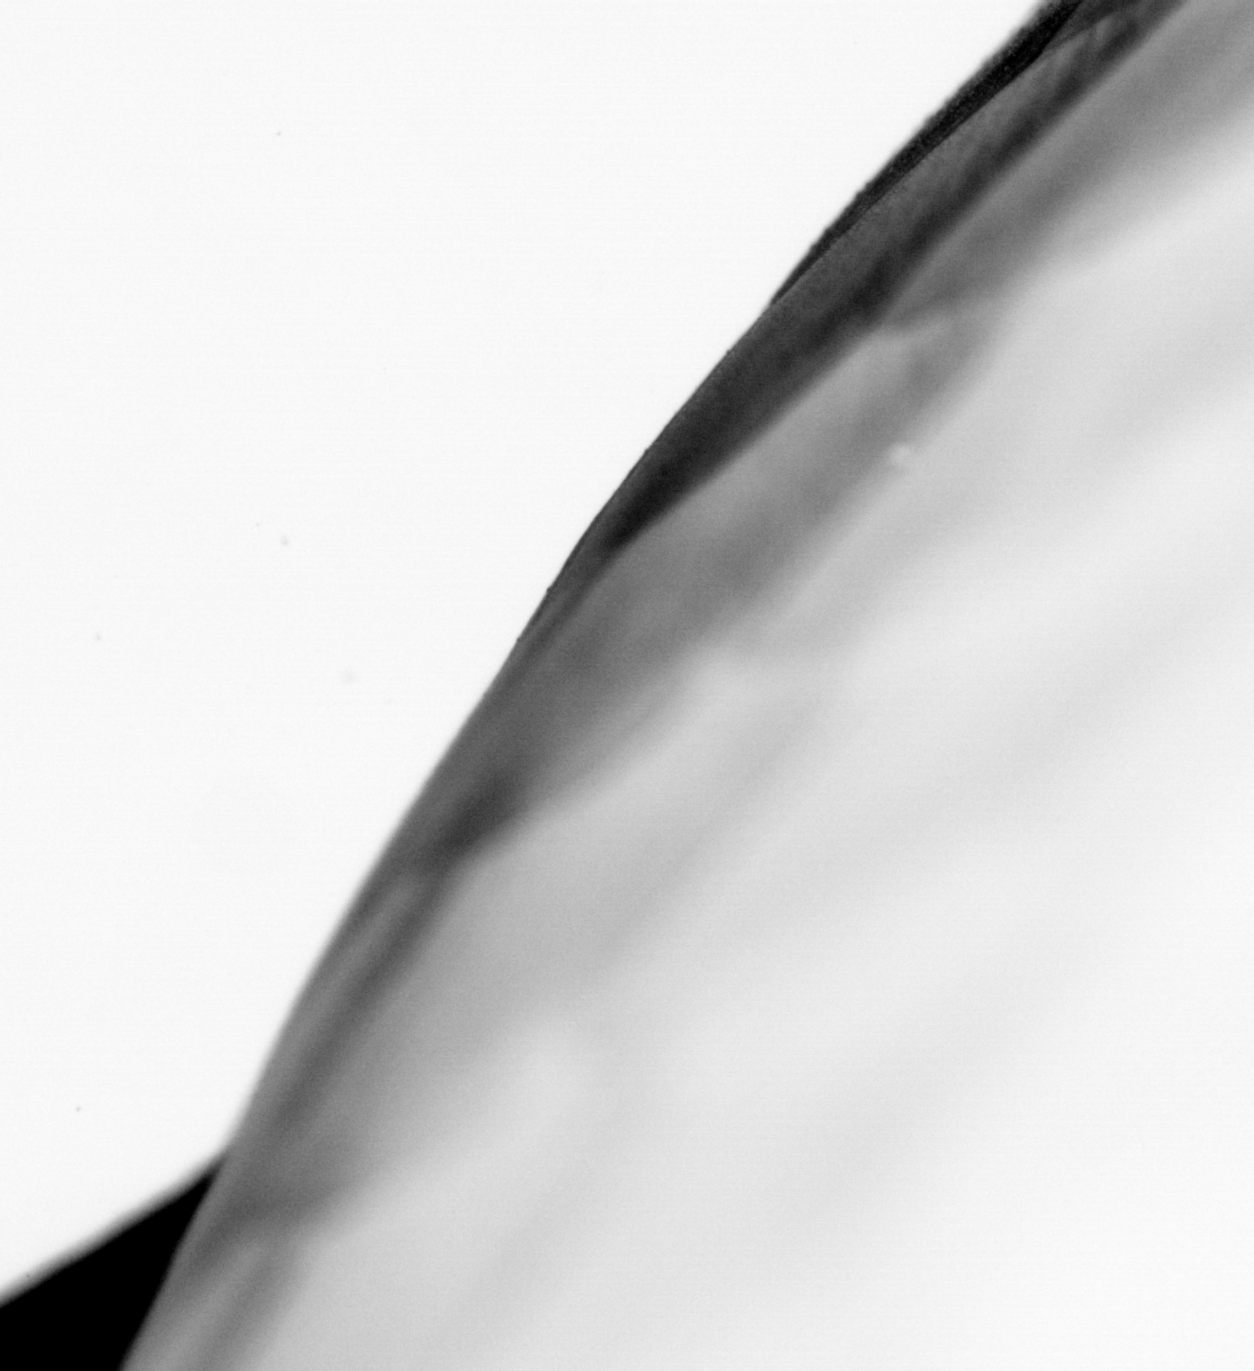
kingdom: Animalia
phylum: Chordata
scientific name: Chordata
